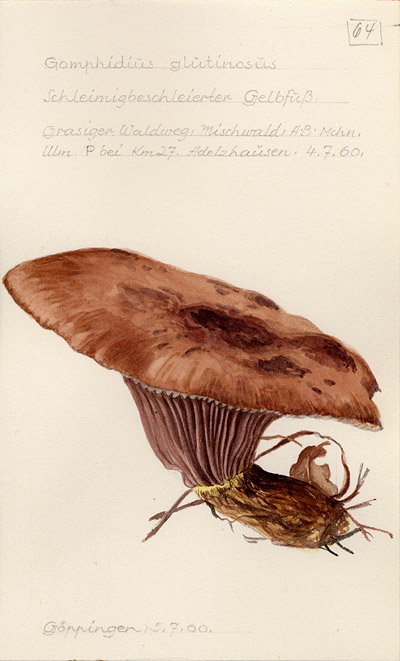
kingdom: Fungi
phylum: Basidiomycota
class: Agaricomycetes
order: Boletales
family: Gomphidiaceae
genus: Gomphidius
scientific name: Gomphidius glutinosus
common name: Slimy spike
